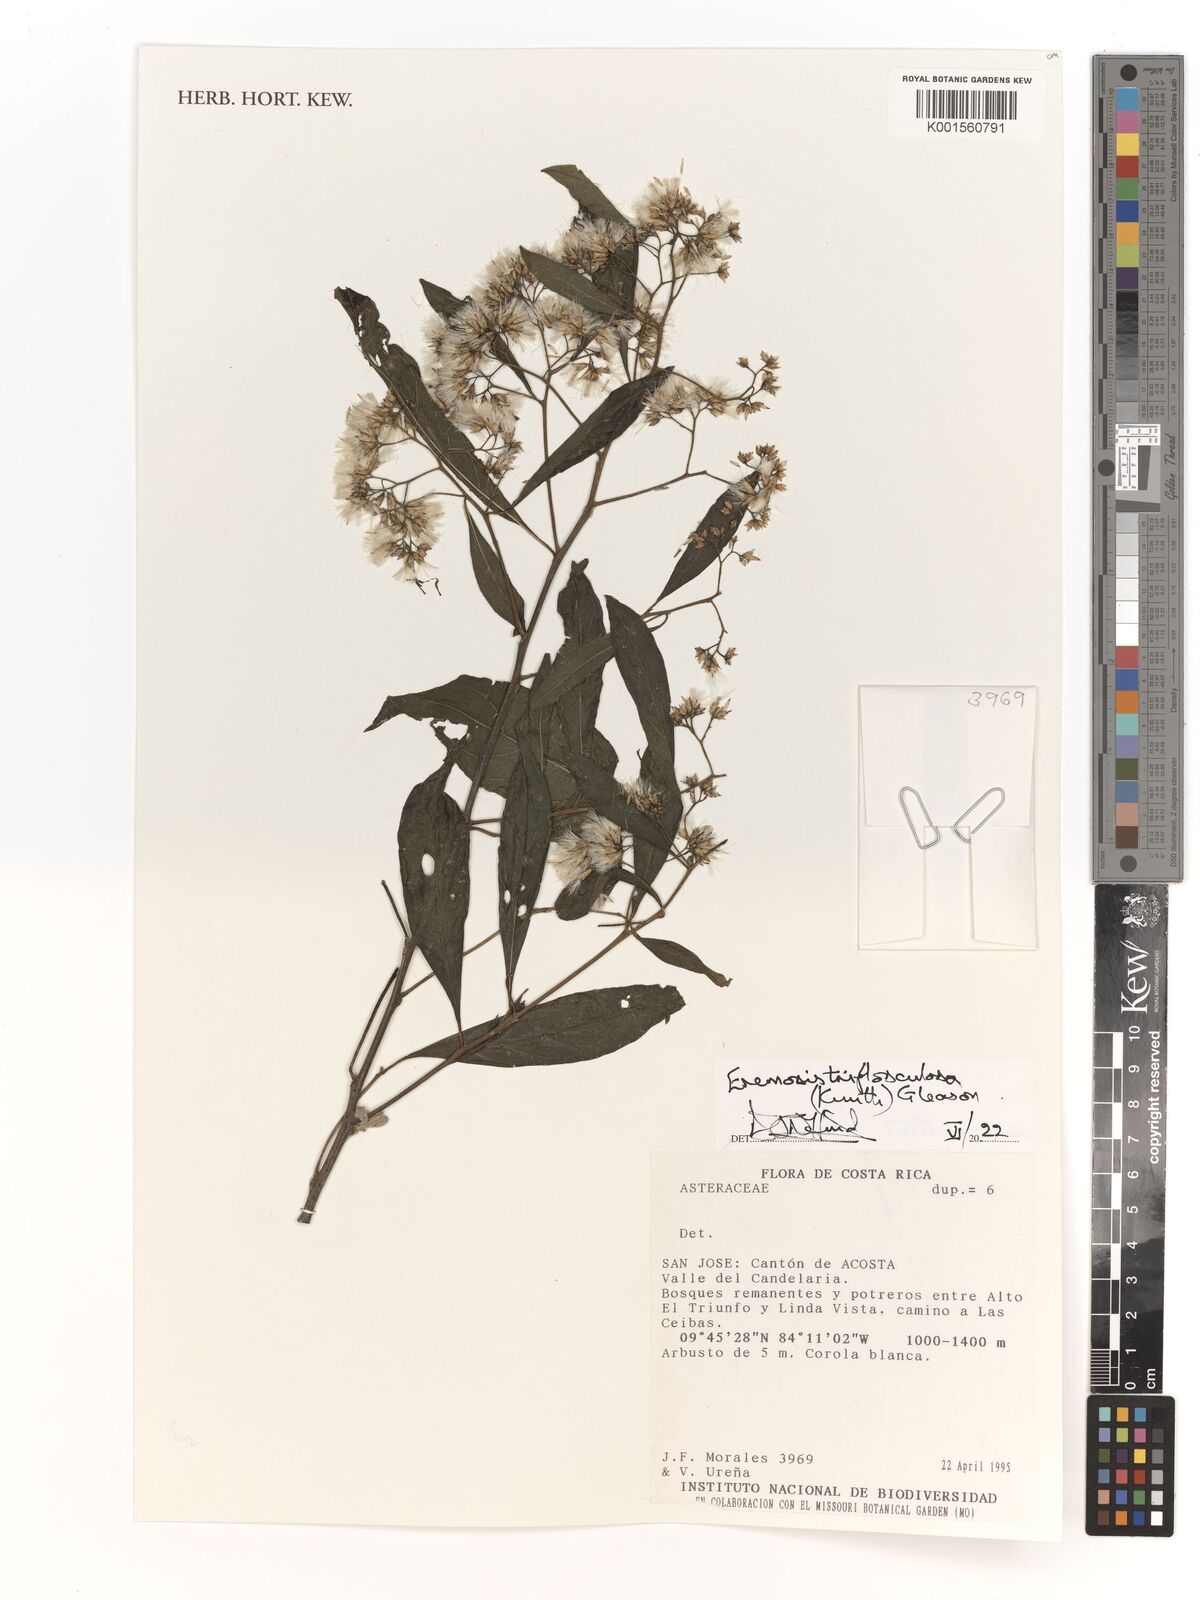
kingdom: Plantae
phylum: Tracheophyta
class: Magnoliopsida
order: Asterales
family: Asteraceae
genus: Eremosis
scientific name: Eremosis triflosculosa
